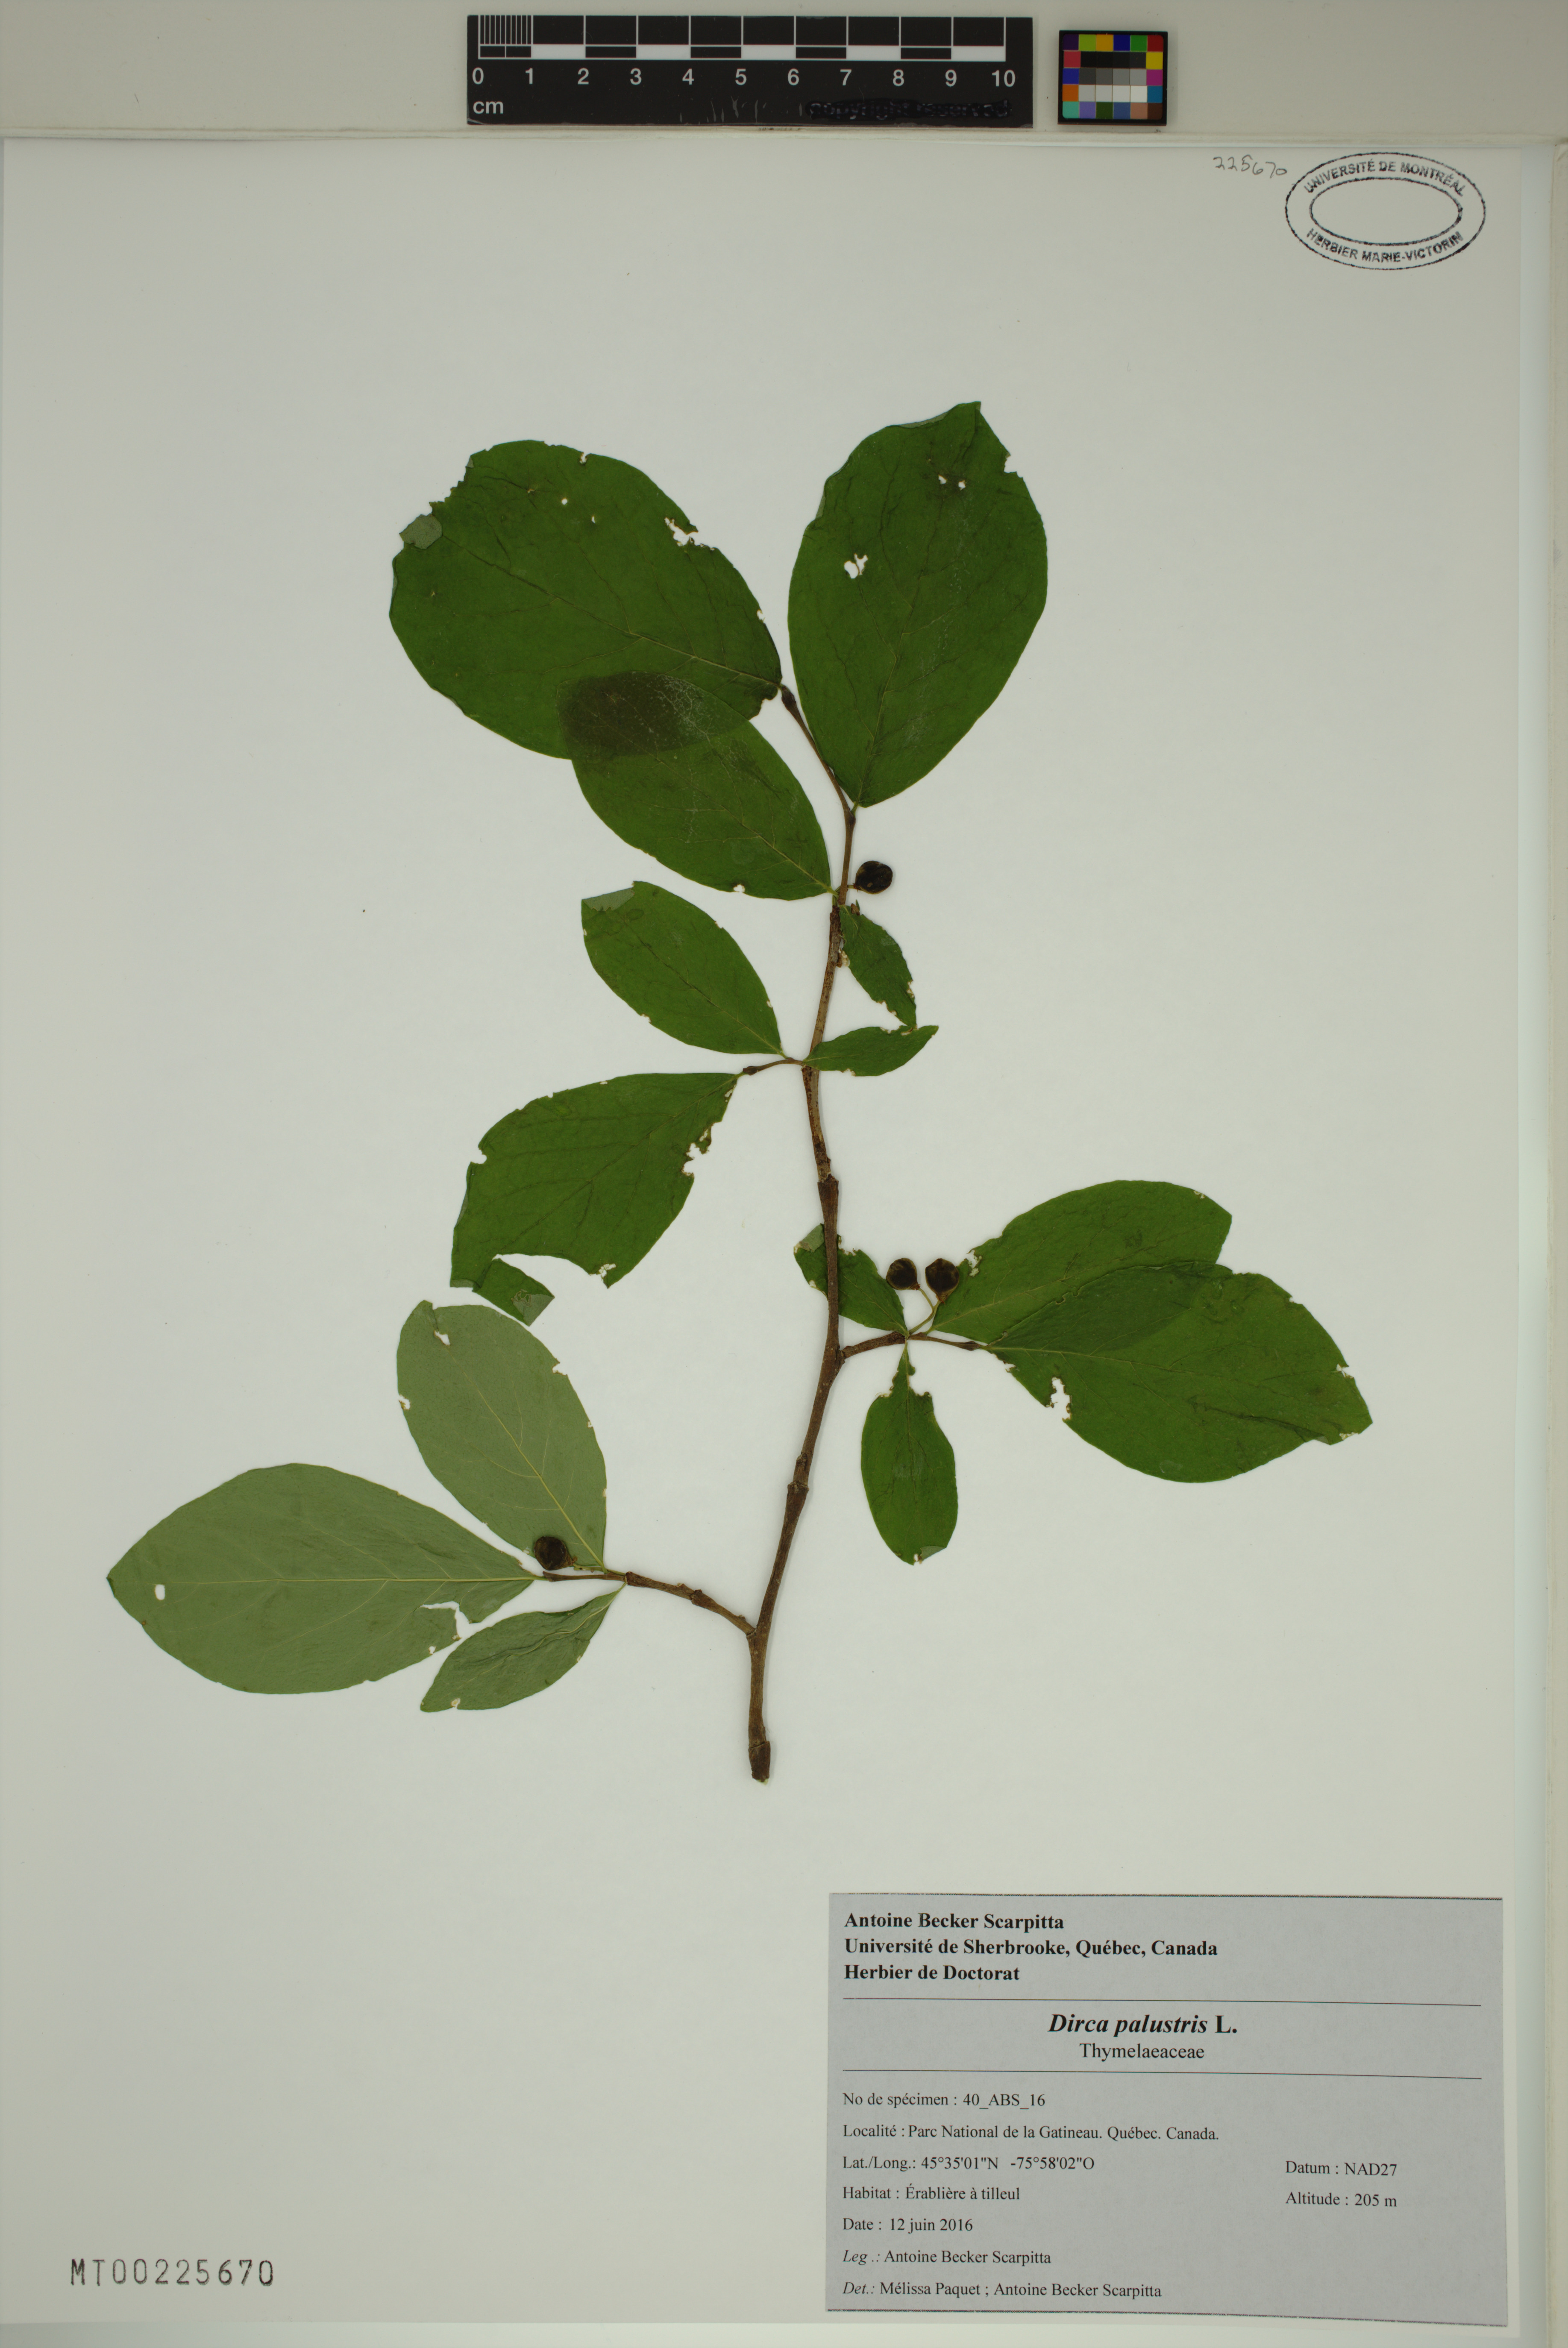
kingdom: Plantae
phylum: Tracheophyta
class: Magnoliopsida
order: Malvales
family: Thymelaeaceae
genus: Dirca
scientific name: Dirca palustris
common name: Leatherwood
